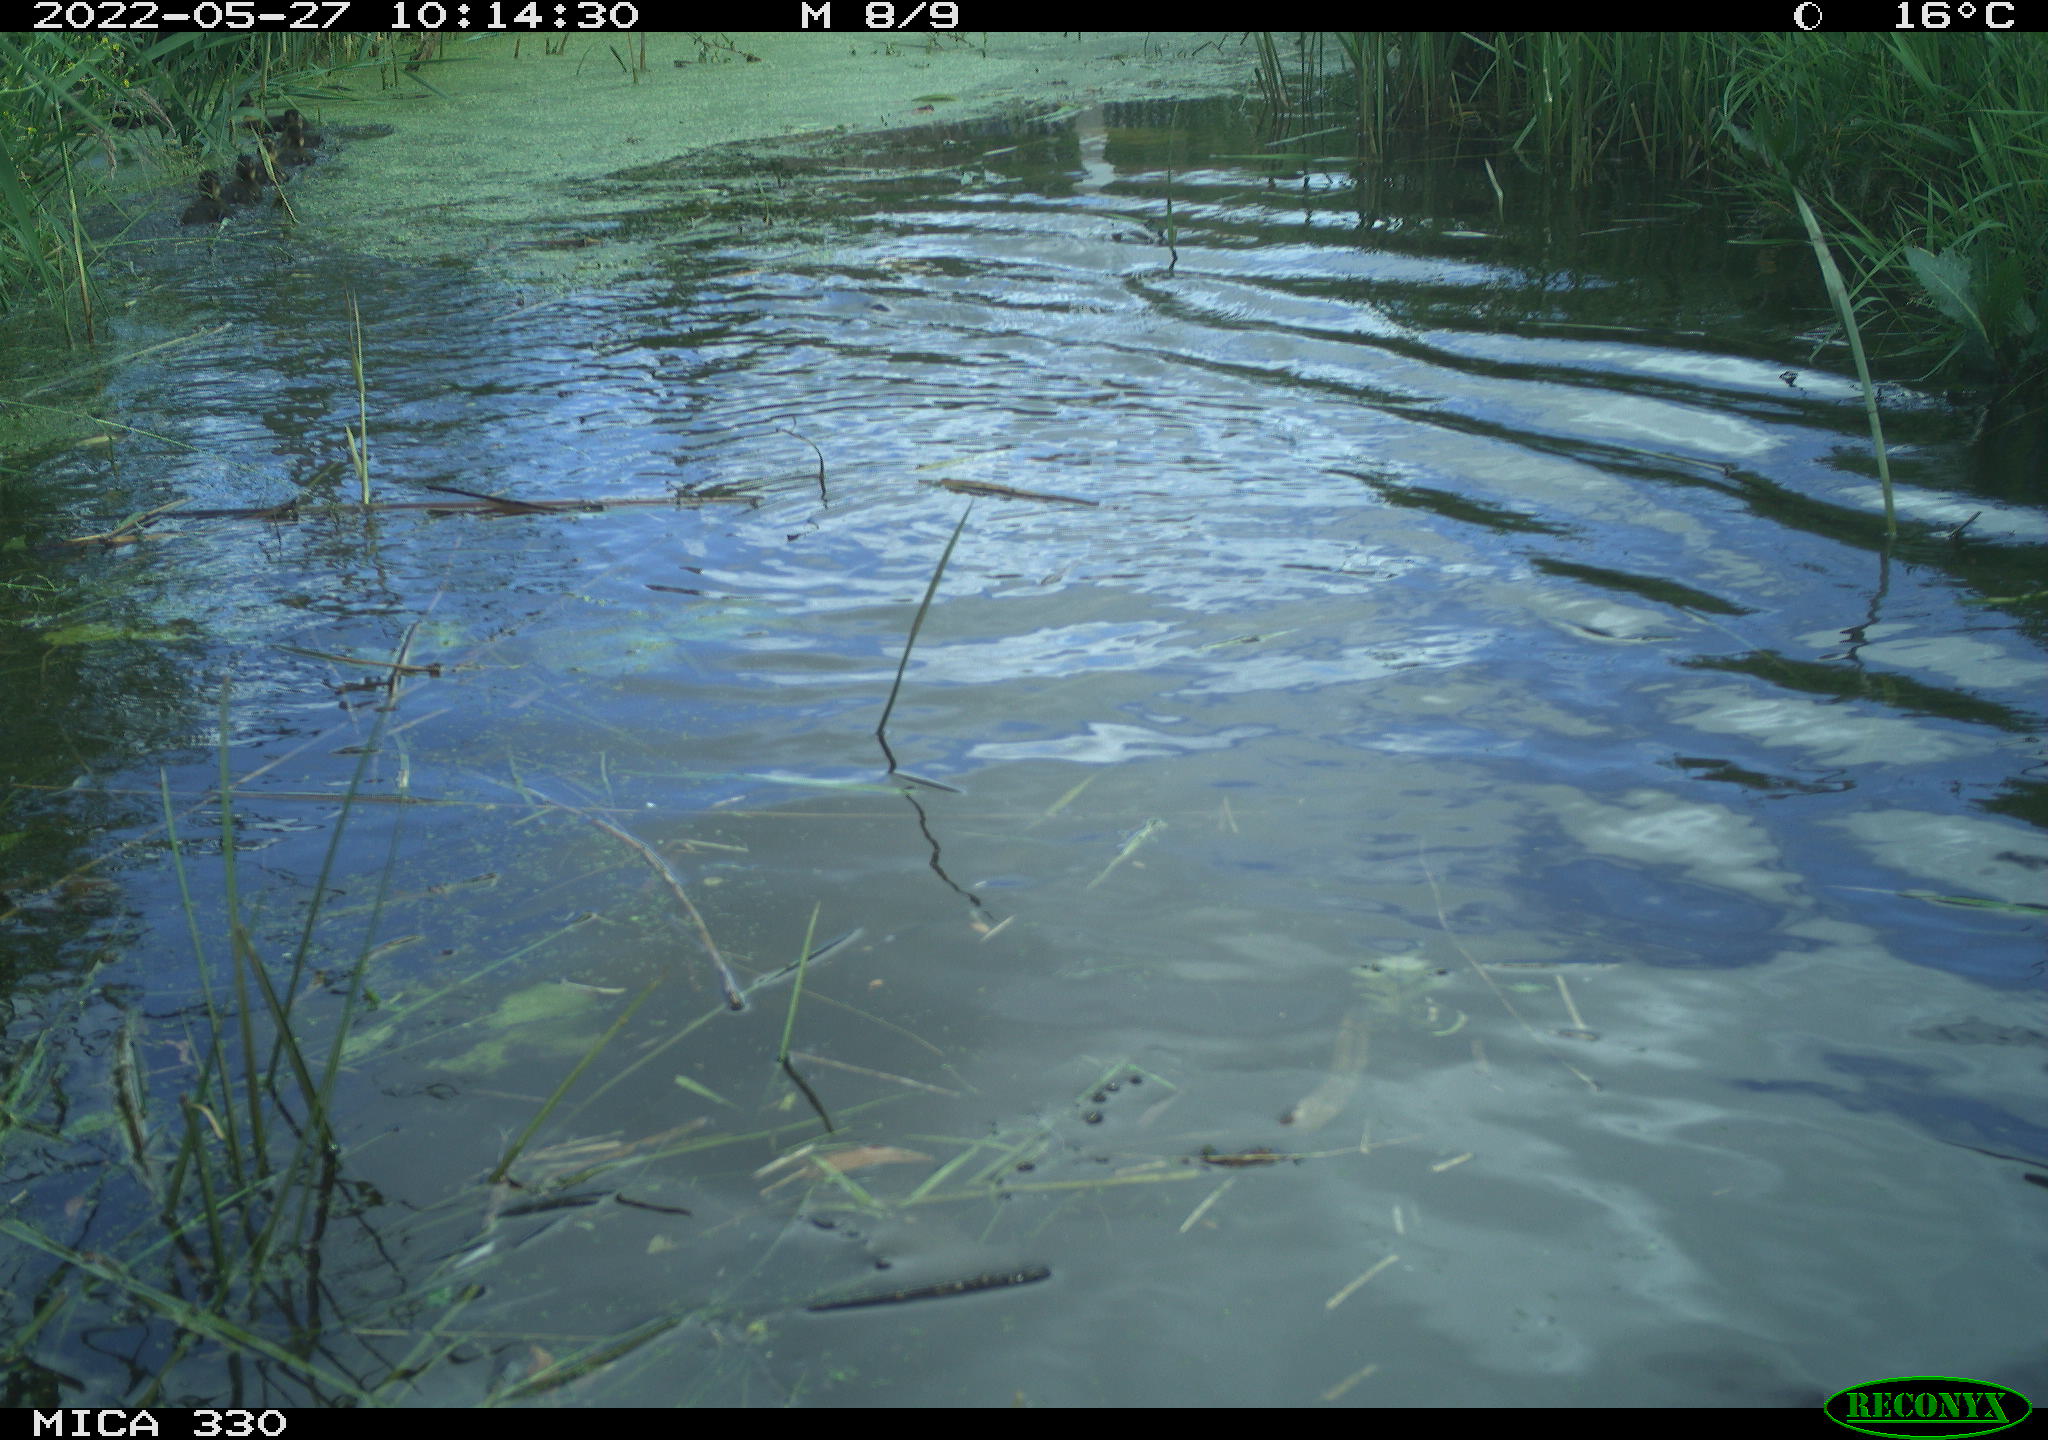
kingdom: Animalia
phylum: Chordata
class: Aves
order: Anseriformes
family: Anatidae
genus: Anas
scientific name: Anas platyrhynchos
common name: Mallard
